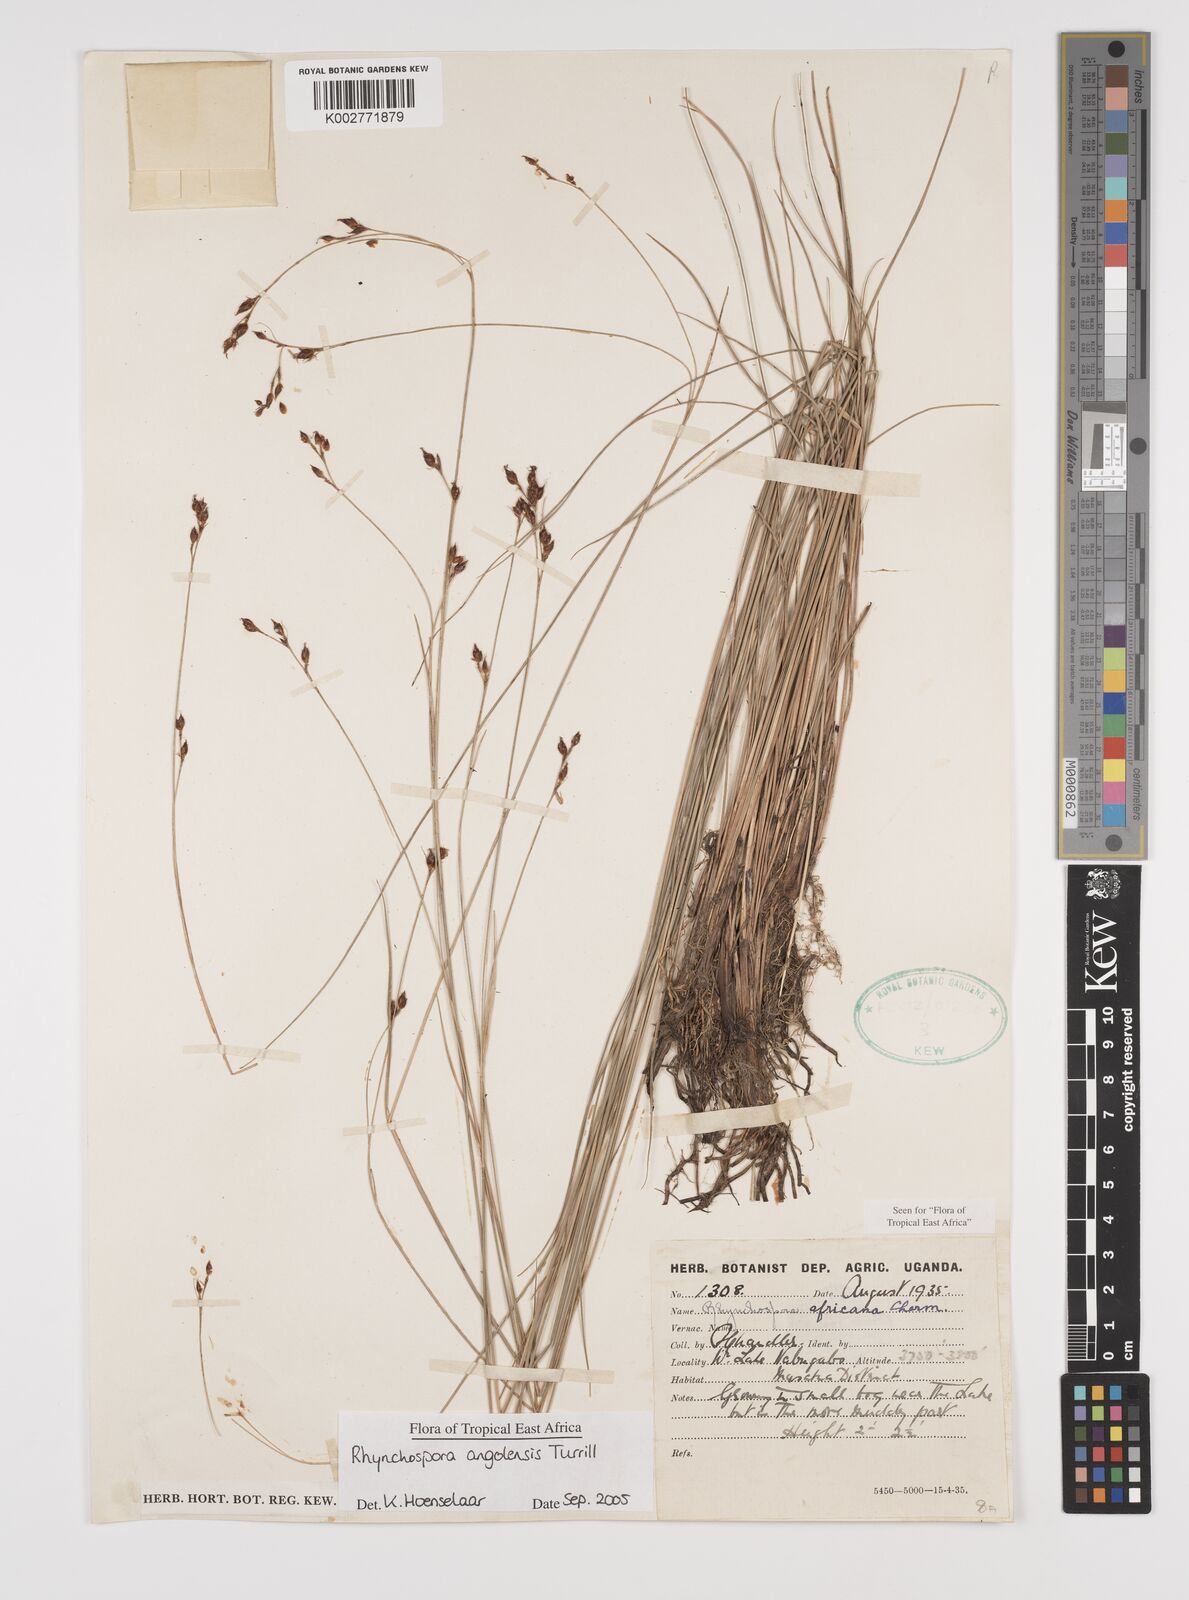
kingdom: Plantae
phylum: Tracheophyta
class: Liliopsida
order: Poales
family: Cyperaceae
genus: Rhynchospora
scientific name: Rhynchospora angolensis
